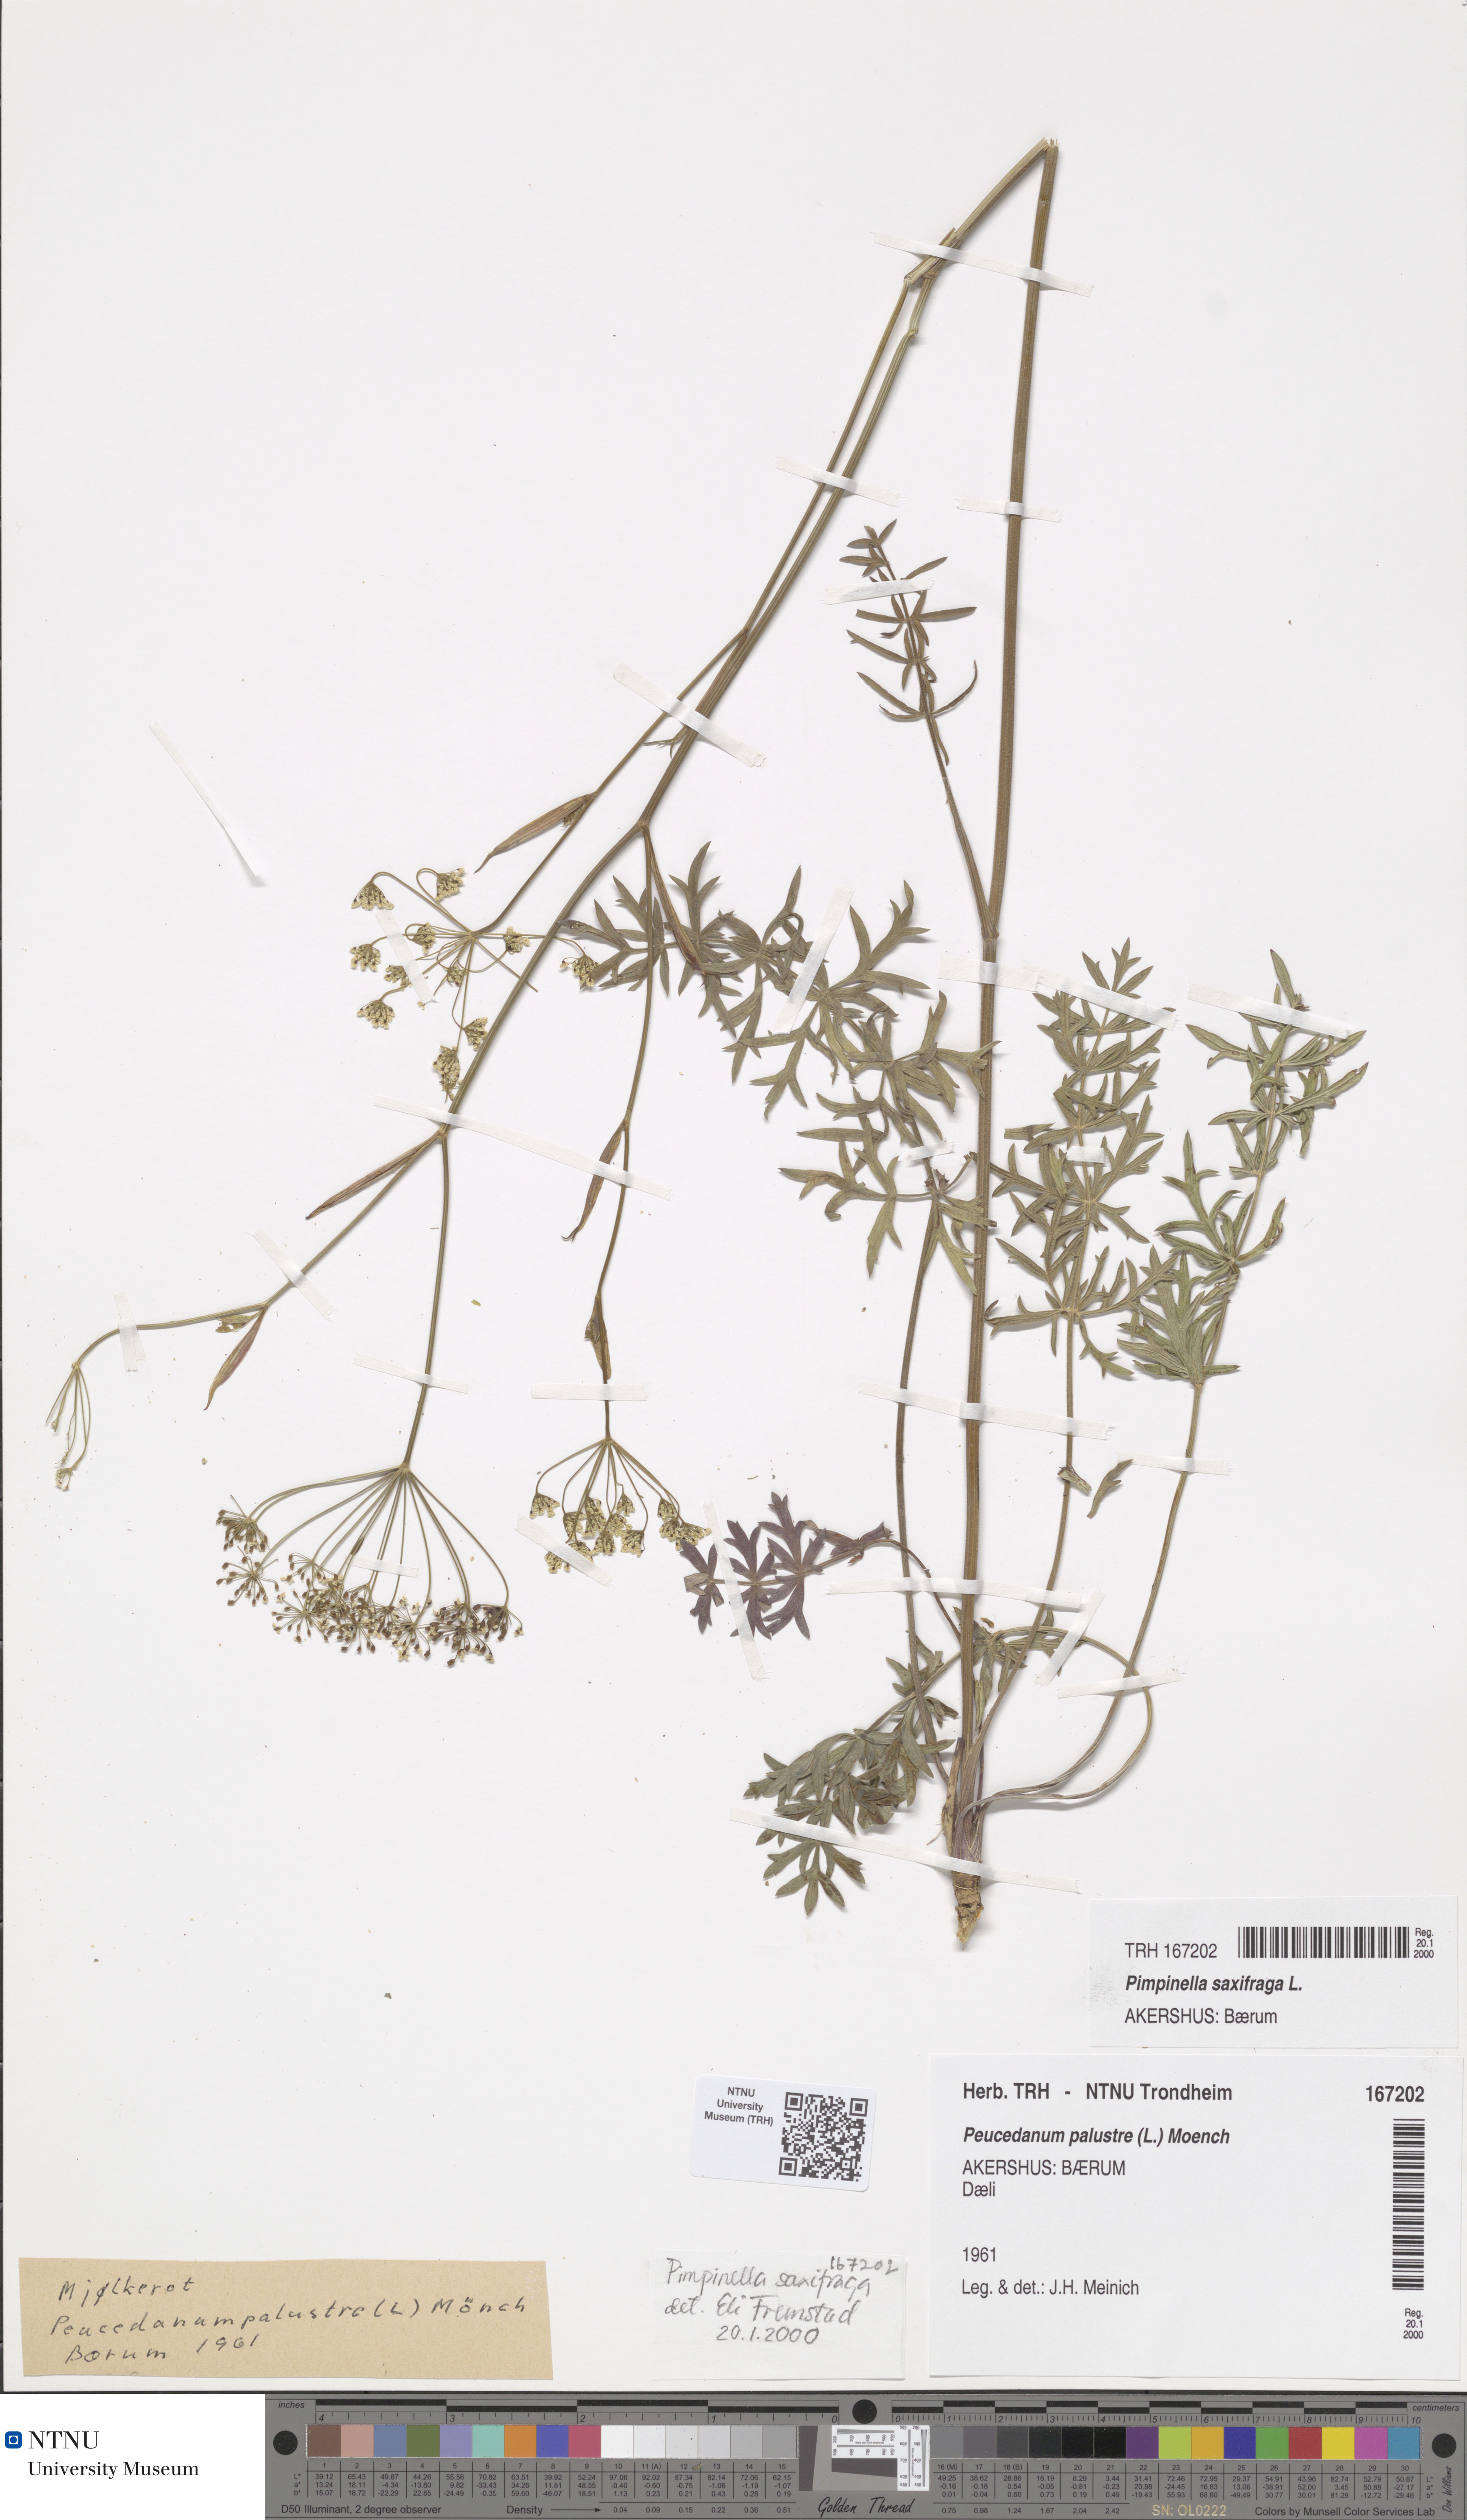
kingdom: Plantae
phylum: Tracheophyta
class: Magnoliopsida
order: Apiales
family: Apiaceae
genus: Pimpinella
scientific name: Pimpinella saxifraga
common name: Burnet-saxifrage
